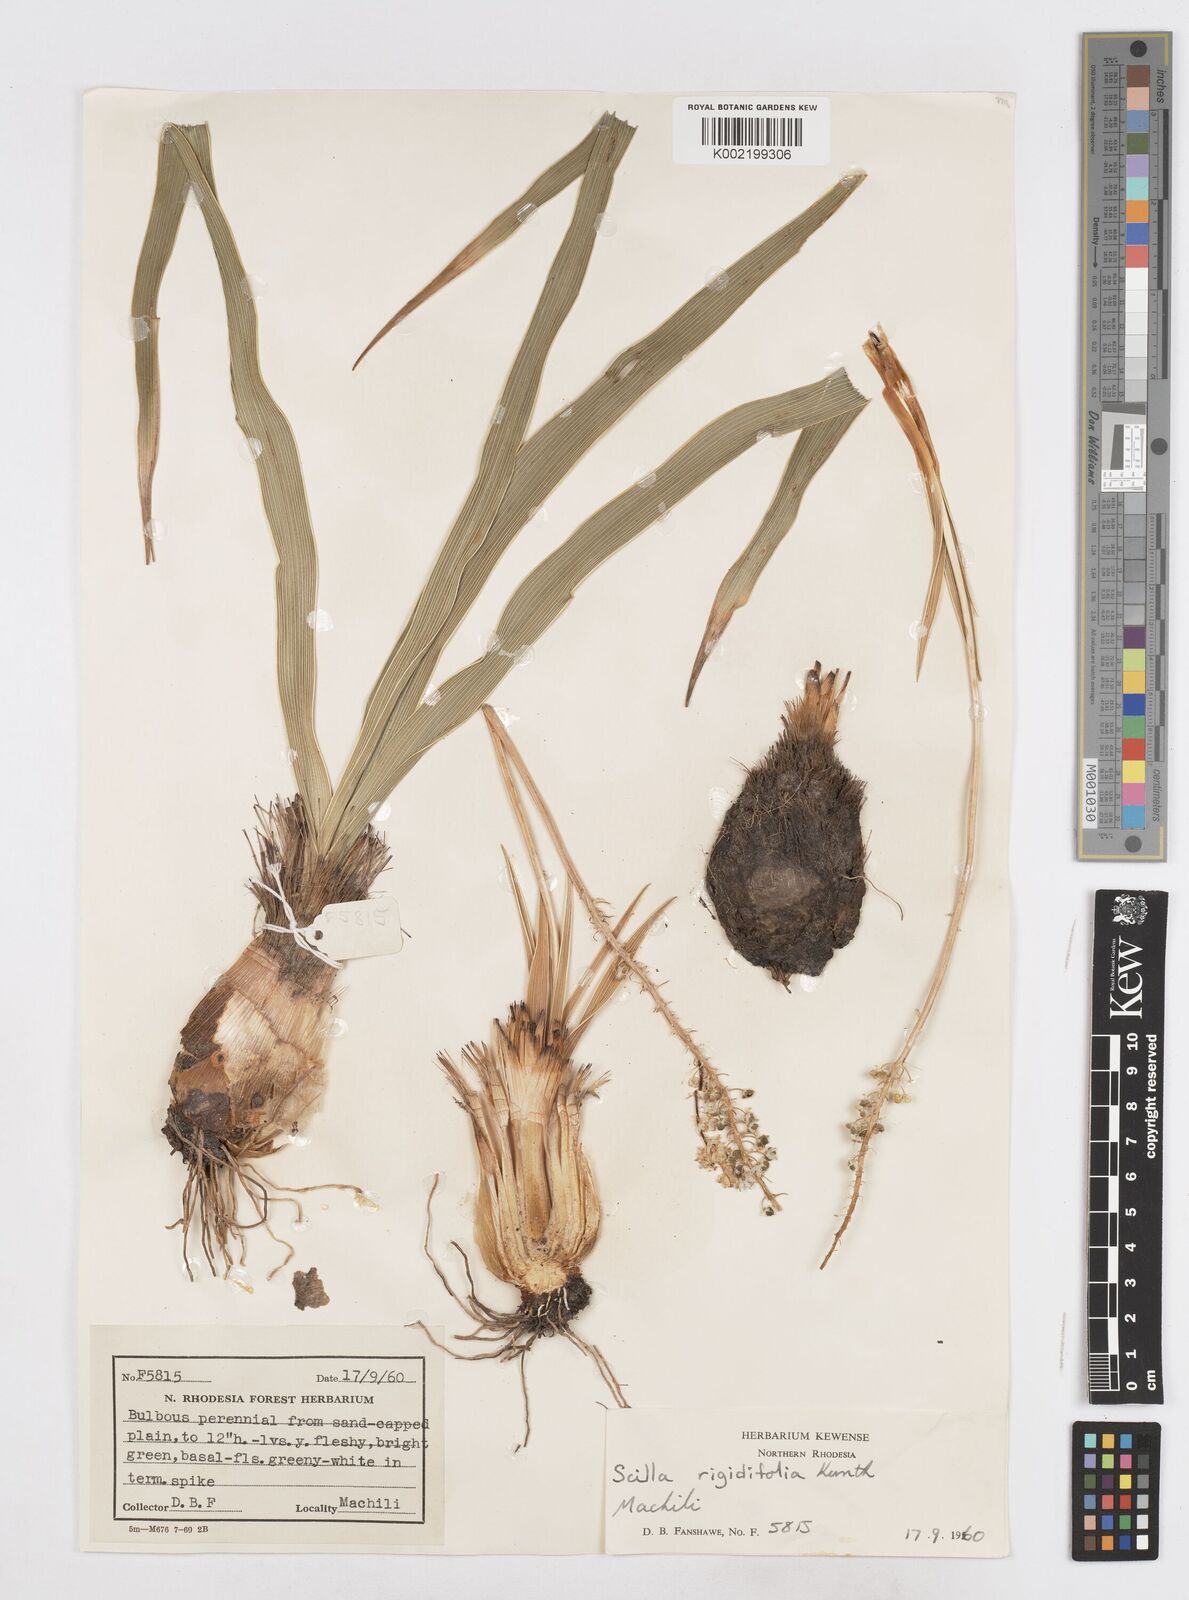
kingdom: Plantae
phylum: Tracheophyta
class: Liliopsida
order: Asparagales
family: Asparagaceae
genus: Schizocarphus
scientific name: Schizocarphus nervosus
